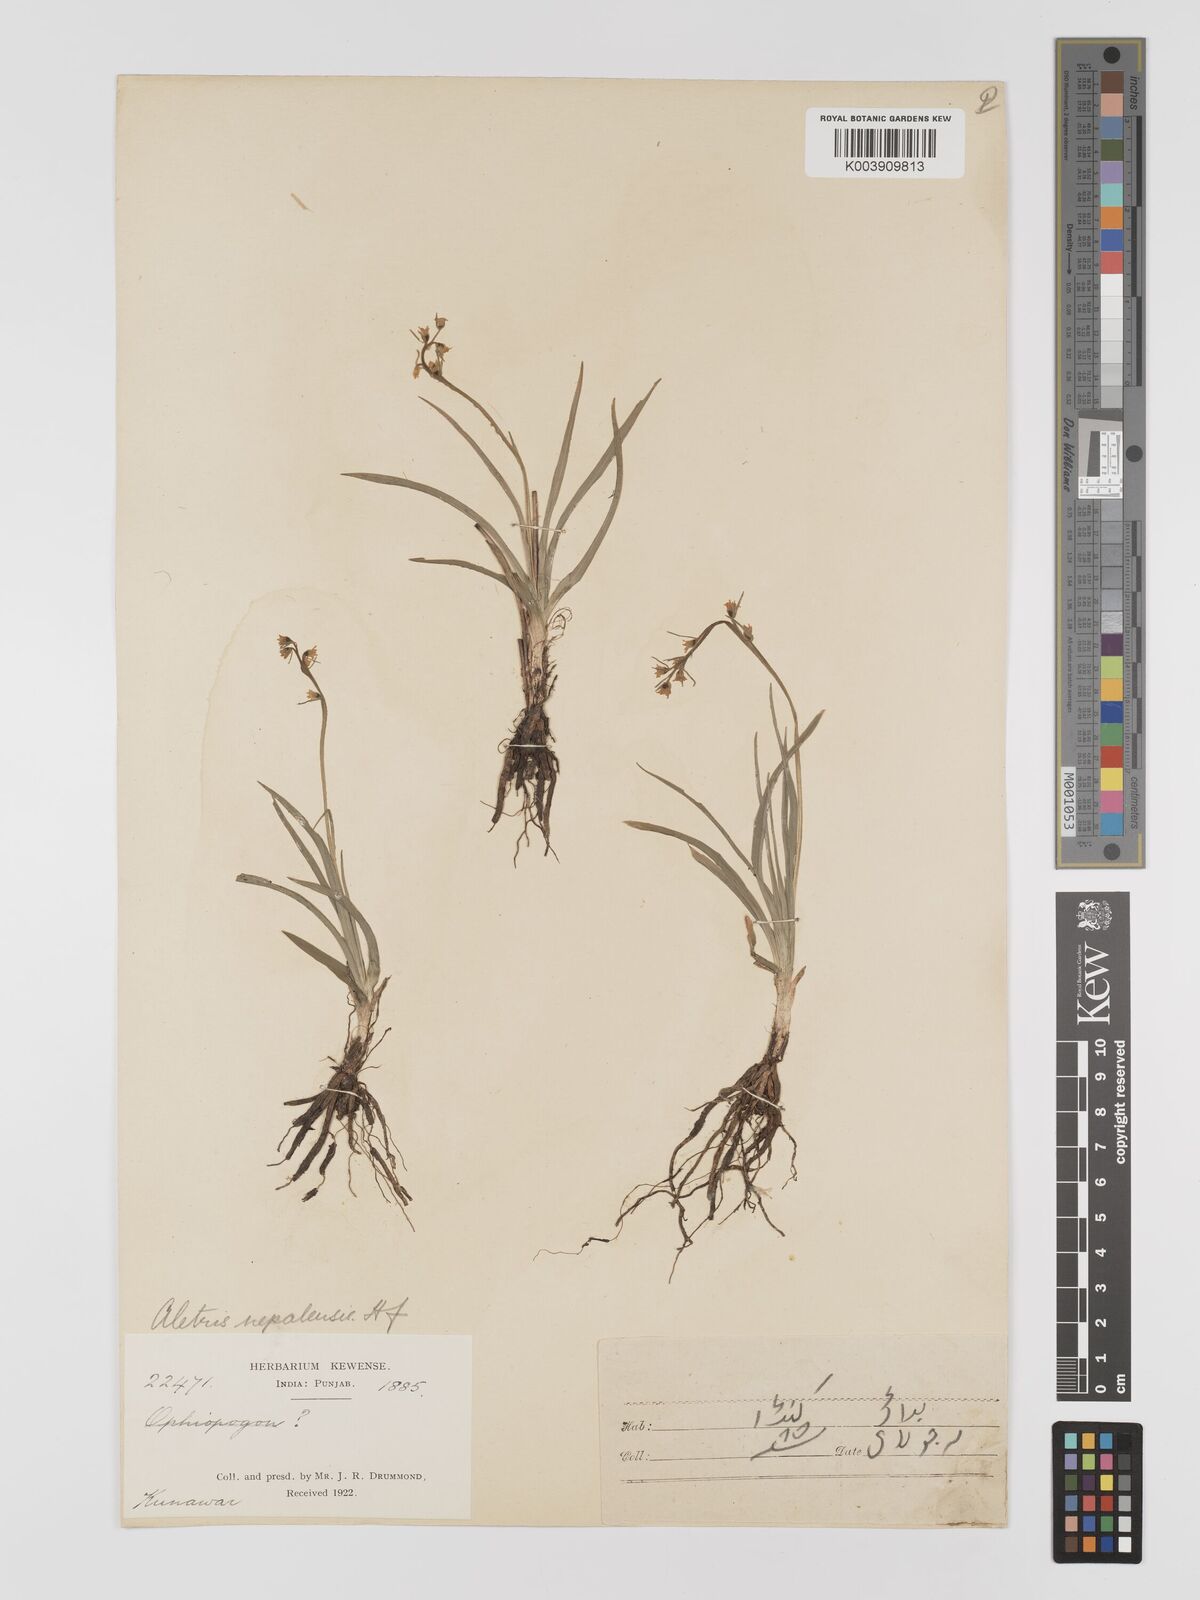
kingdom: Plantae
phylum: Tracheophyta
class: Liliopsida
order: Dioscoreales
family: Nartheciaceae
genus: Aletris
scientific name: Aletris pauciflora
